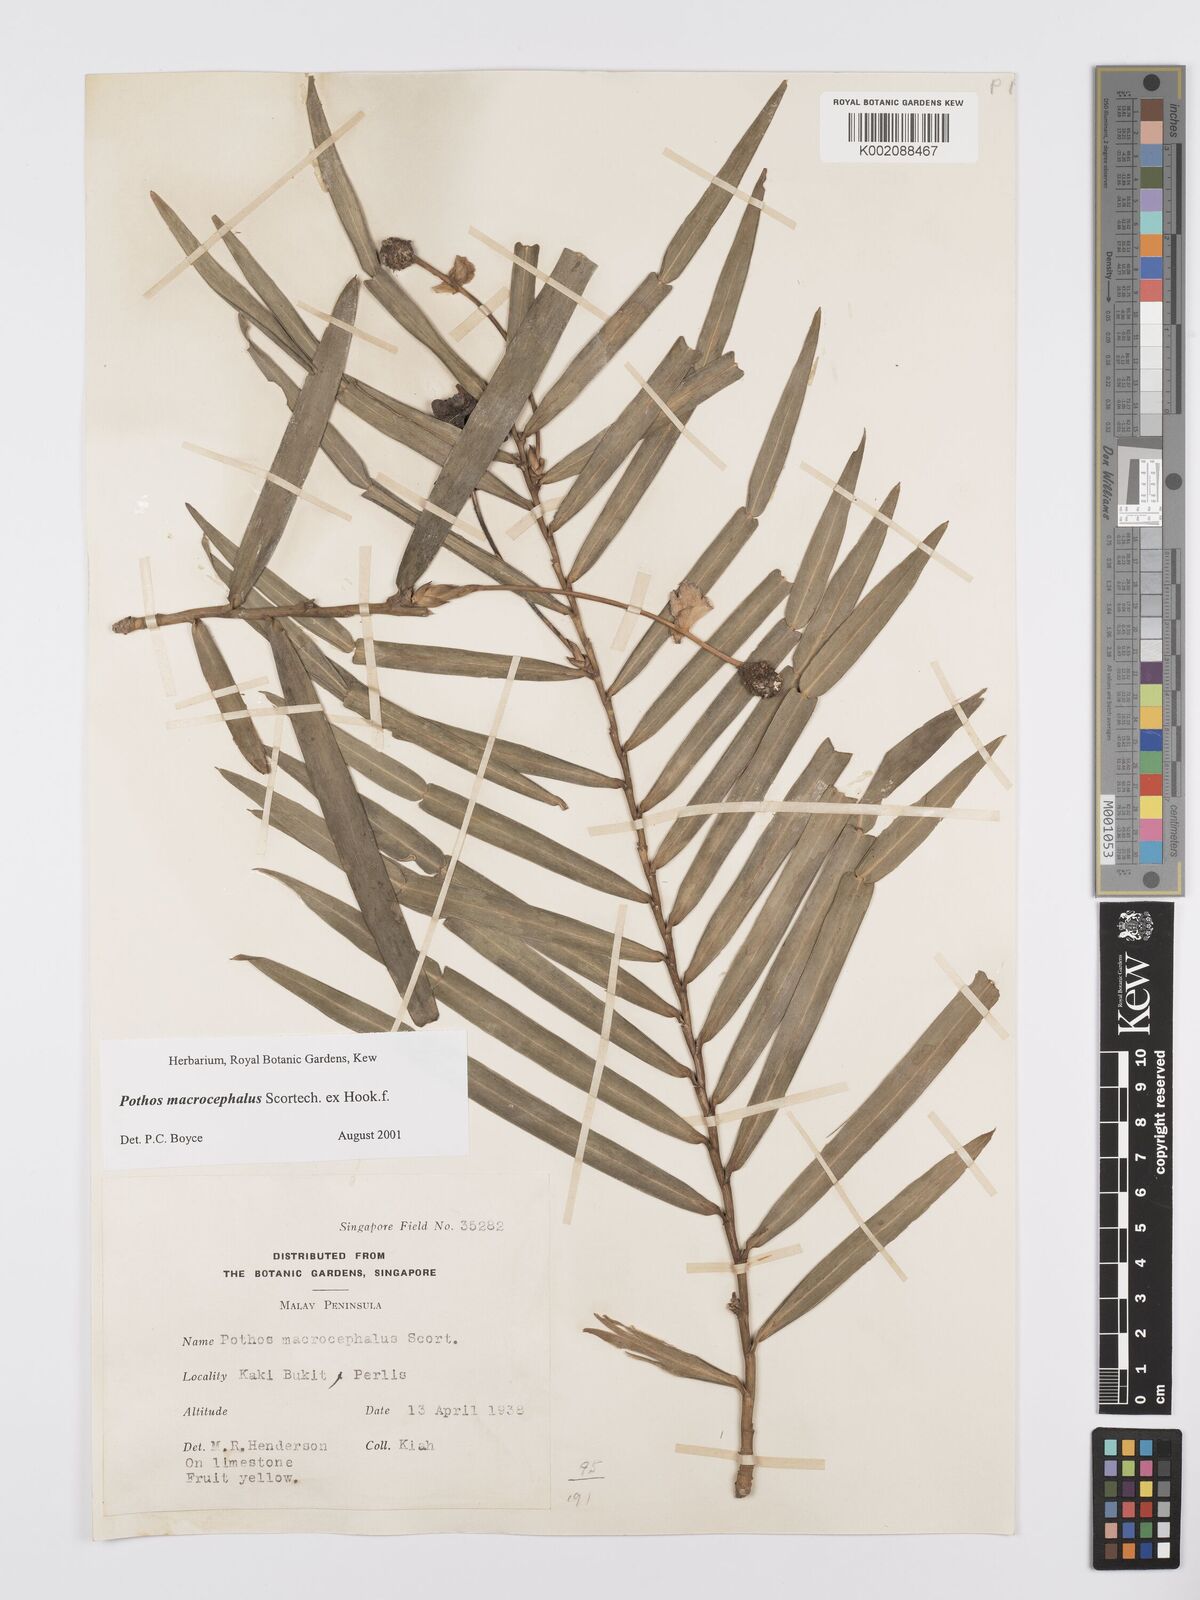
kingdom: Plantae
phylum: Tracheophyta
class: Liliopsida
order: Alismatales
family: Araceae
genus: Pothos
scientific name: Pothos macrocephalus
